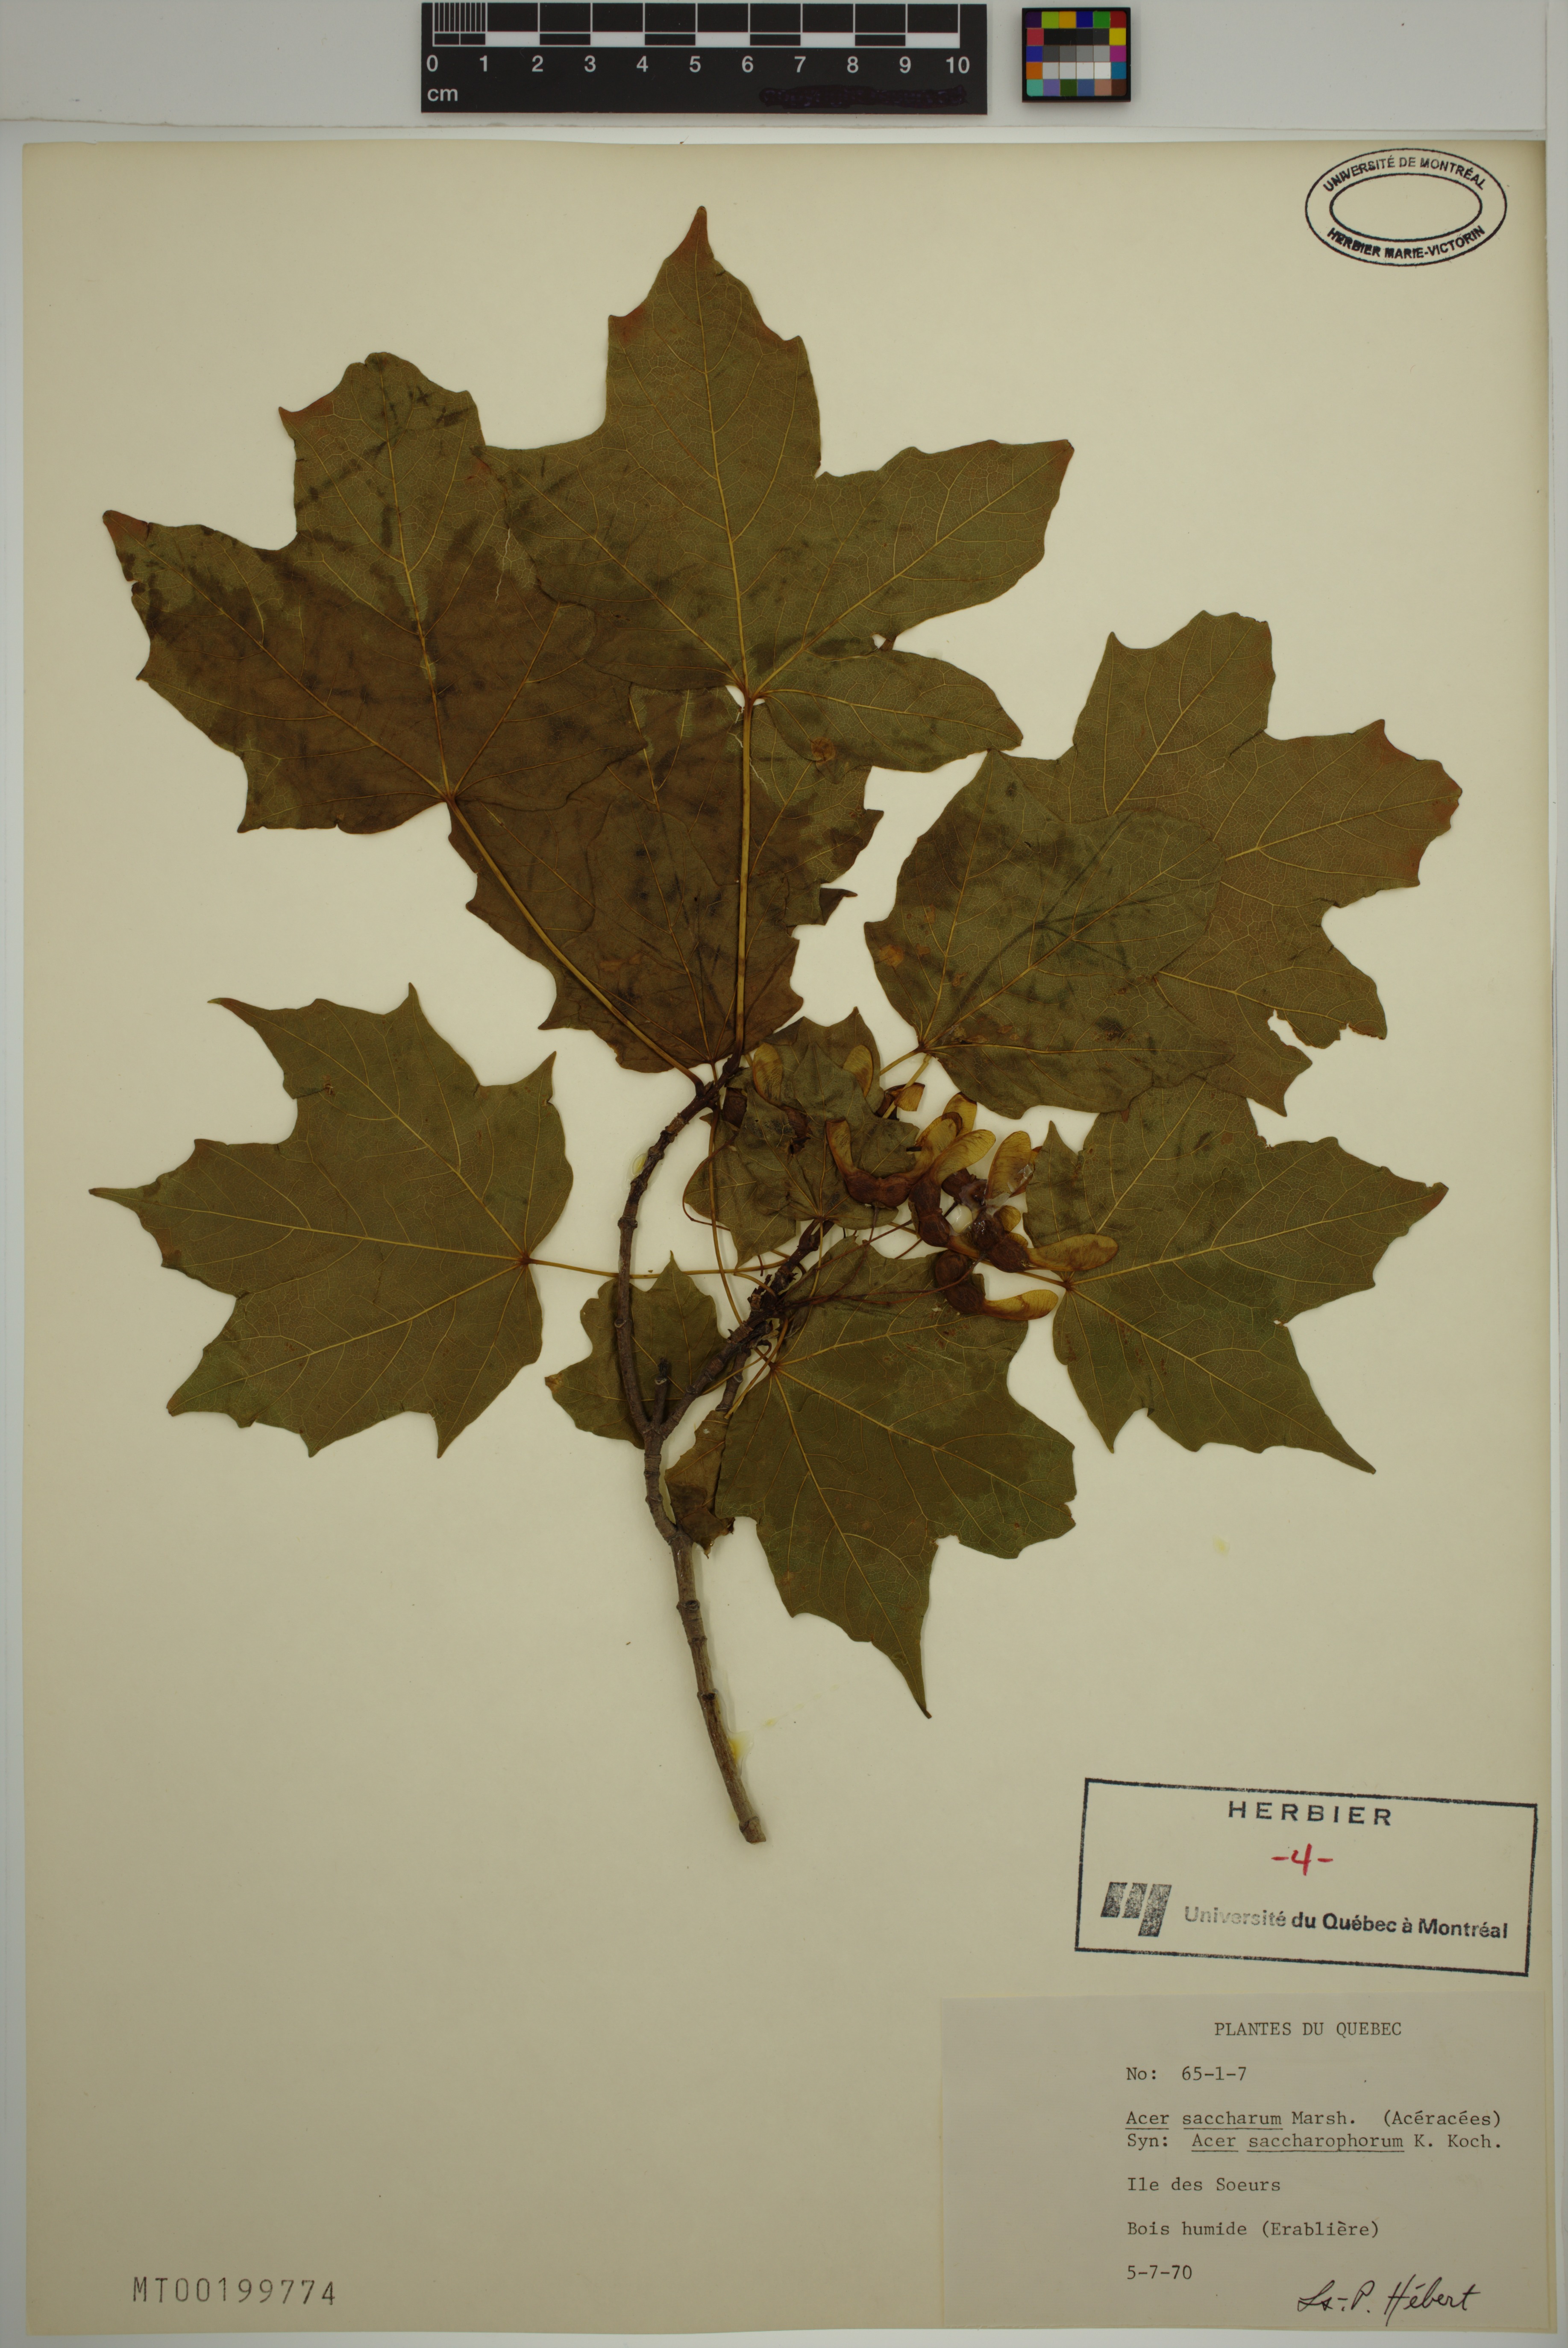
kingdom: Plantae
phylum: Tracheophyta
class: Magnoliopsida
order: Sapindales
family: Sapindaceae
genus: Acer
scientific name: Acer saccharum
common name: Sugar maple
